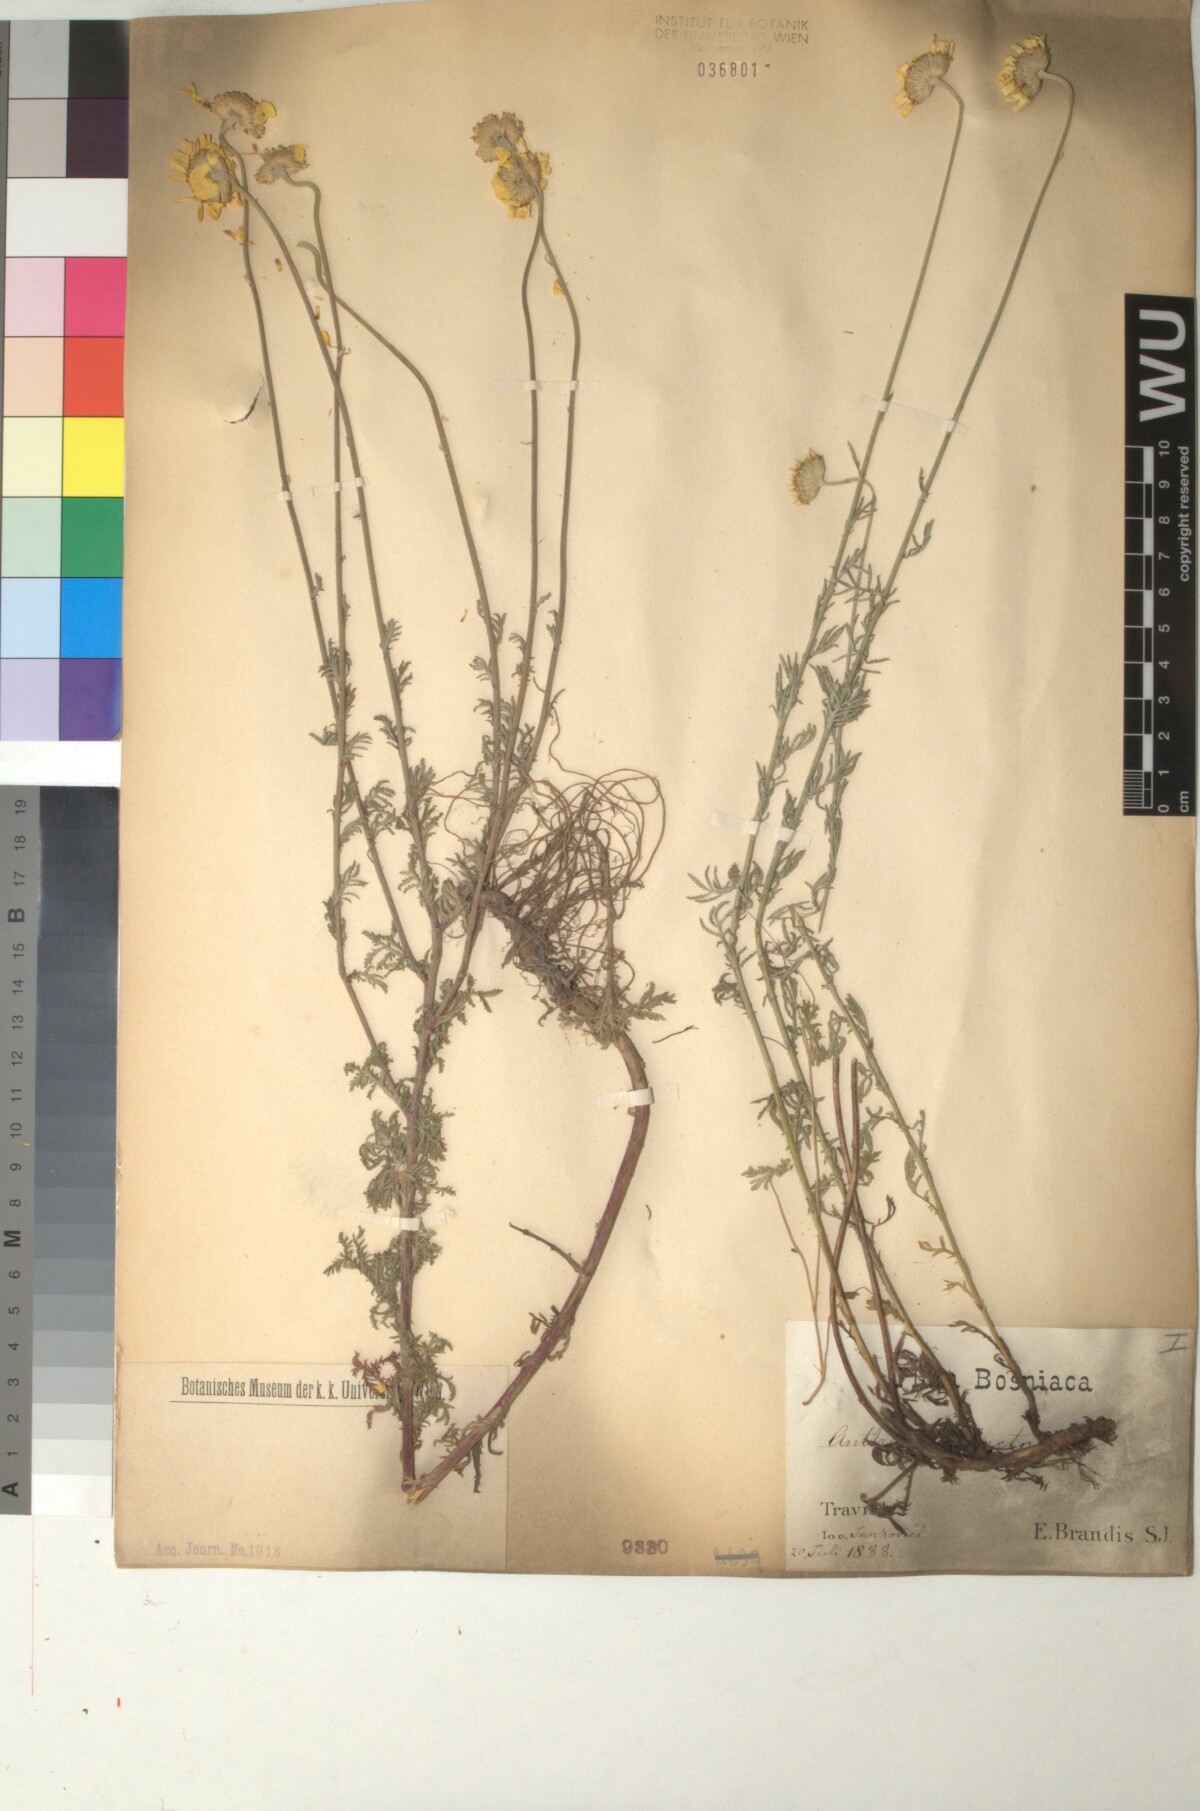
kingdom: Plantae
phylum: Tracheophyta
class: Magnoliopsida
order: Asterales
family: Asteraceae
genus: Cota
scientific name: Cota tinctoria
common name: Golden chamomile
